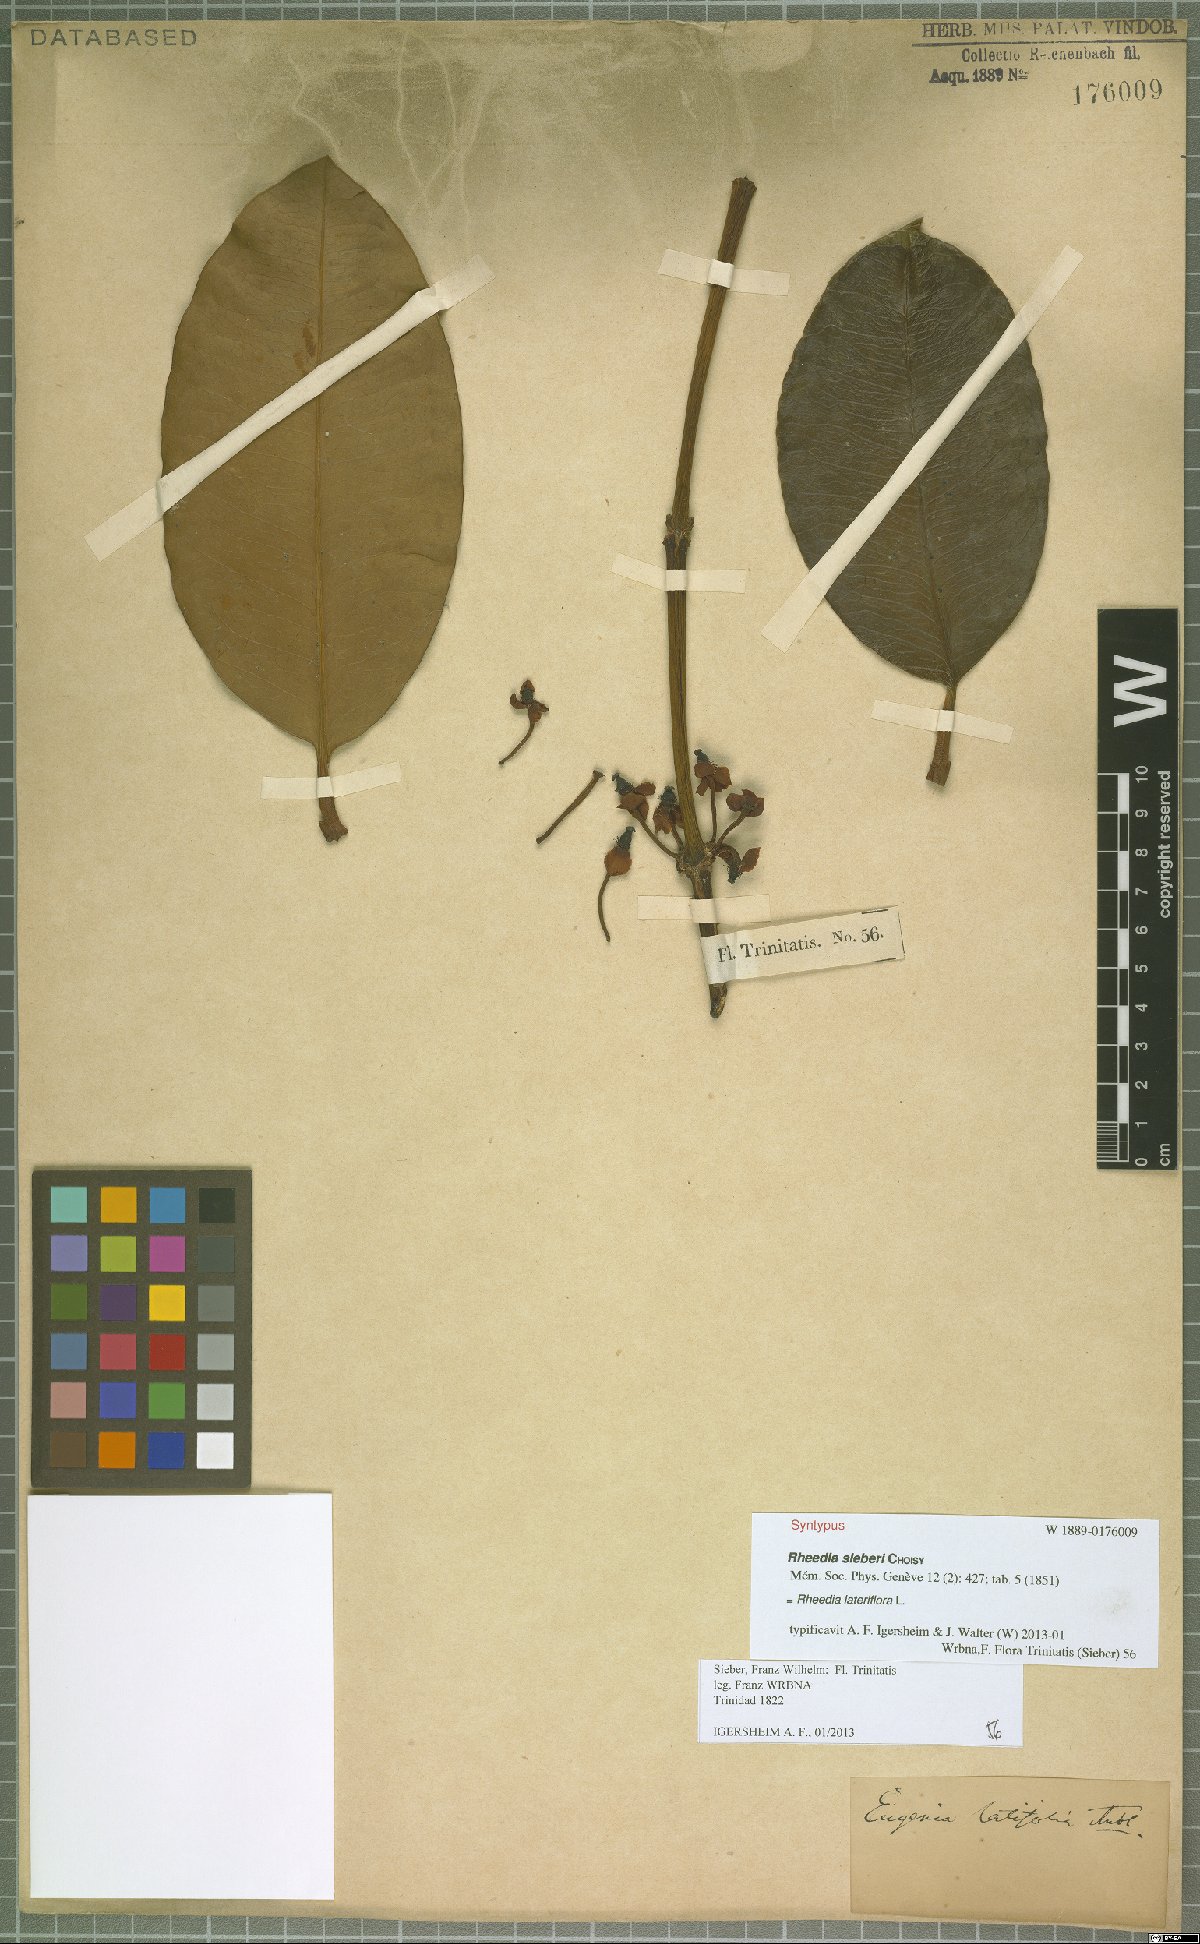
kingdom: Plantae
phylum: Tracheophyta
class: Magnoliopsida
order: Malpighiales
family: Clusiaceae
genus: Garcinia
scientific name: Garcinia humilis
